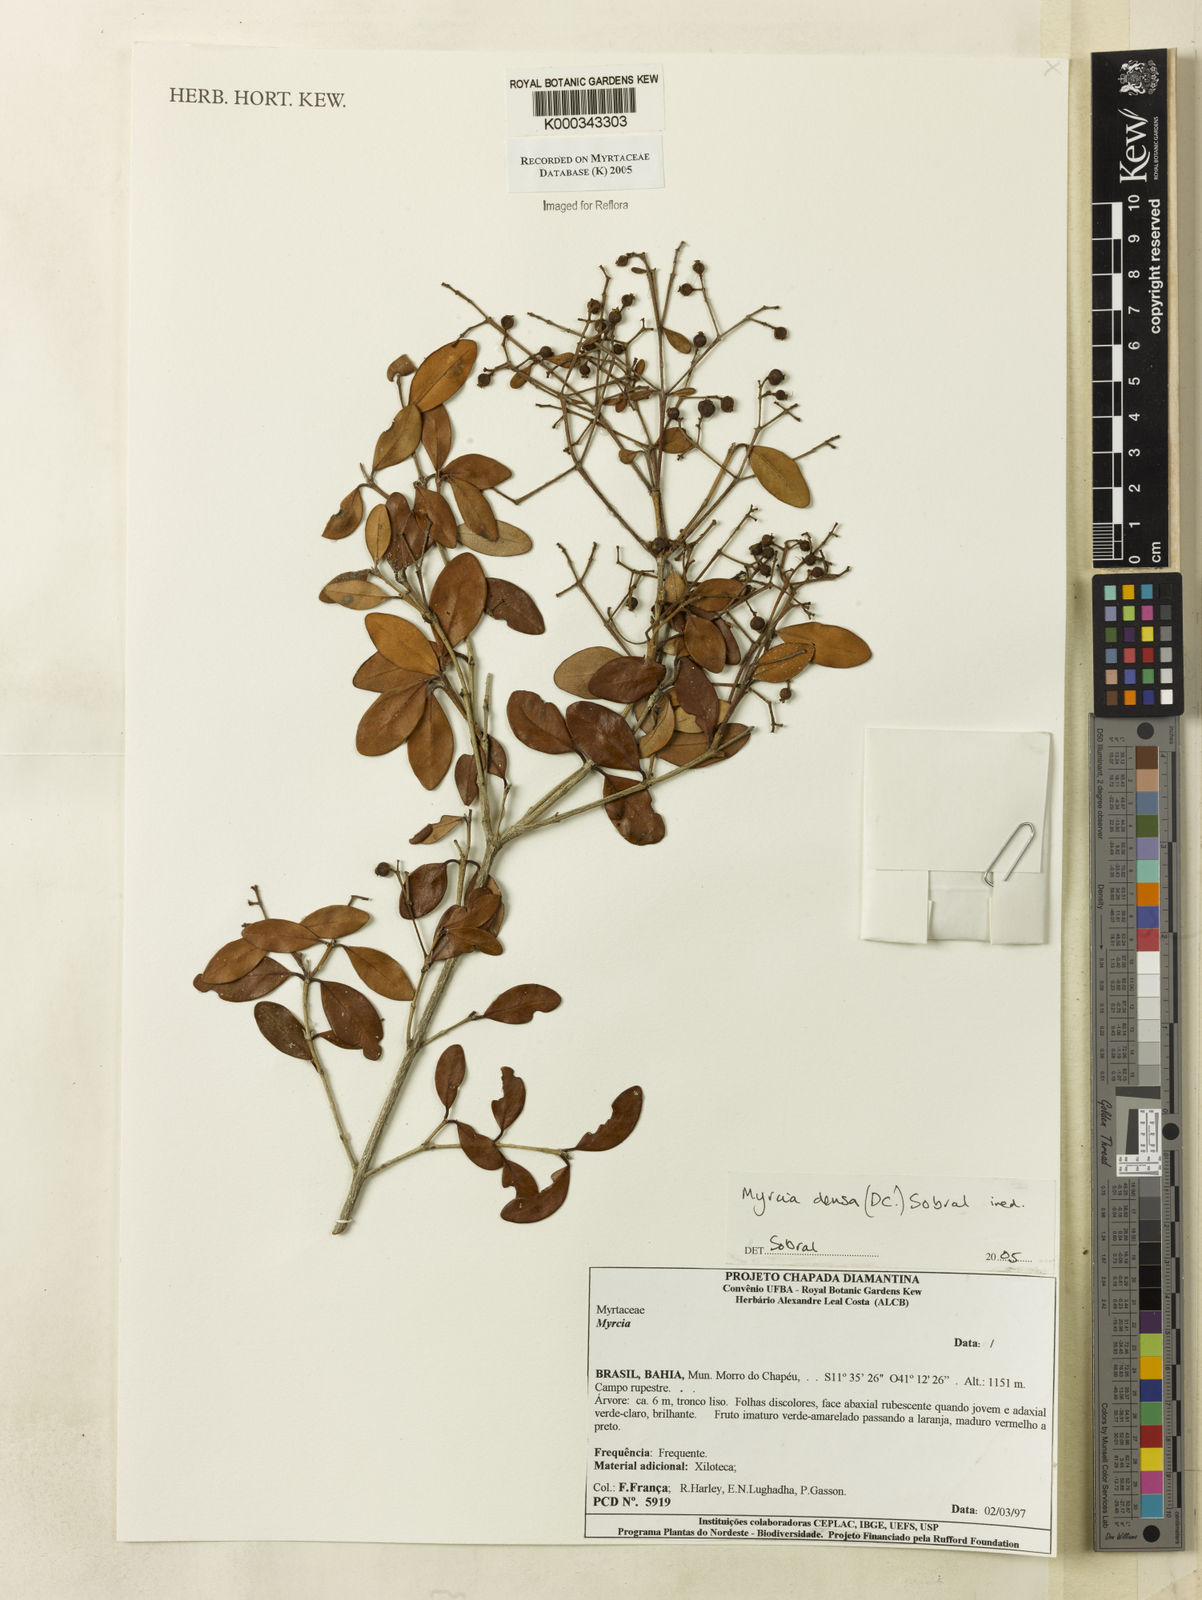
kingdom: Plantae
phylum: Tracheophyta
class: Magnoliopsida
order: Myrtales
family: Myrtaceae
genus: Myrcia
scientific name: Myrcia densa
